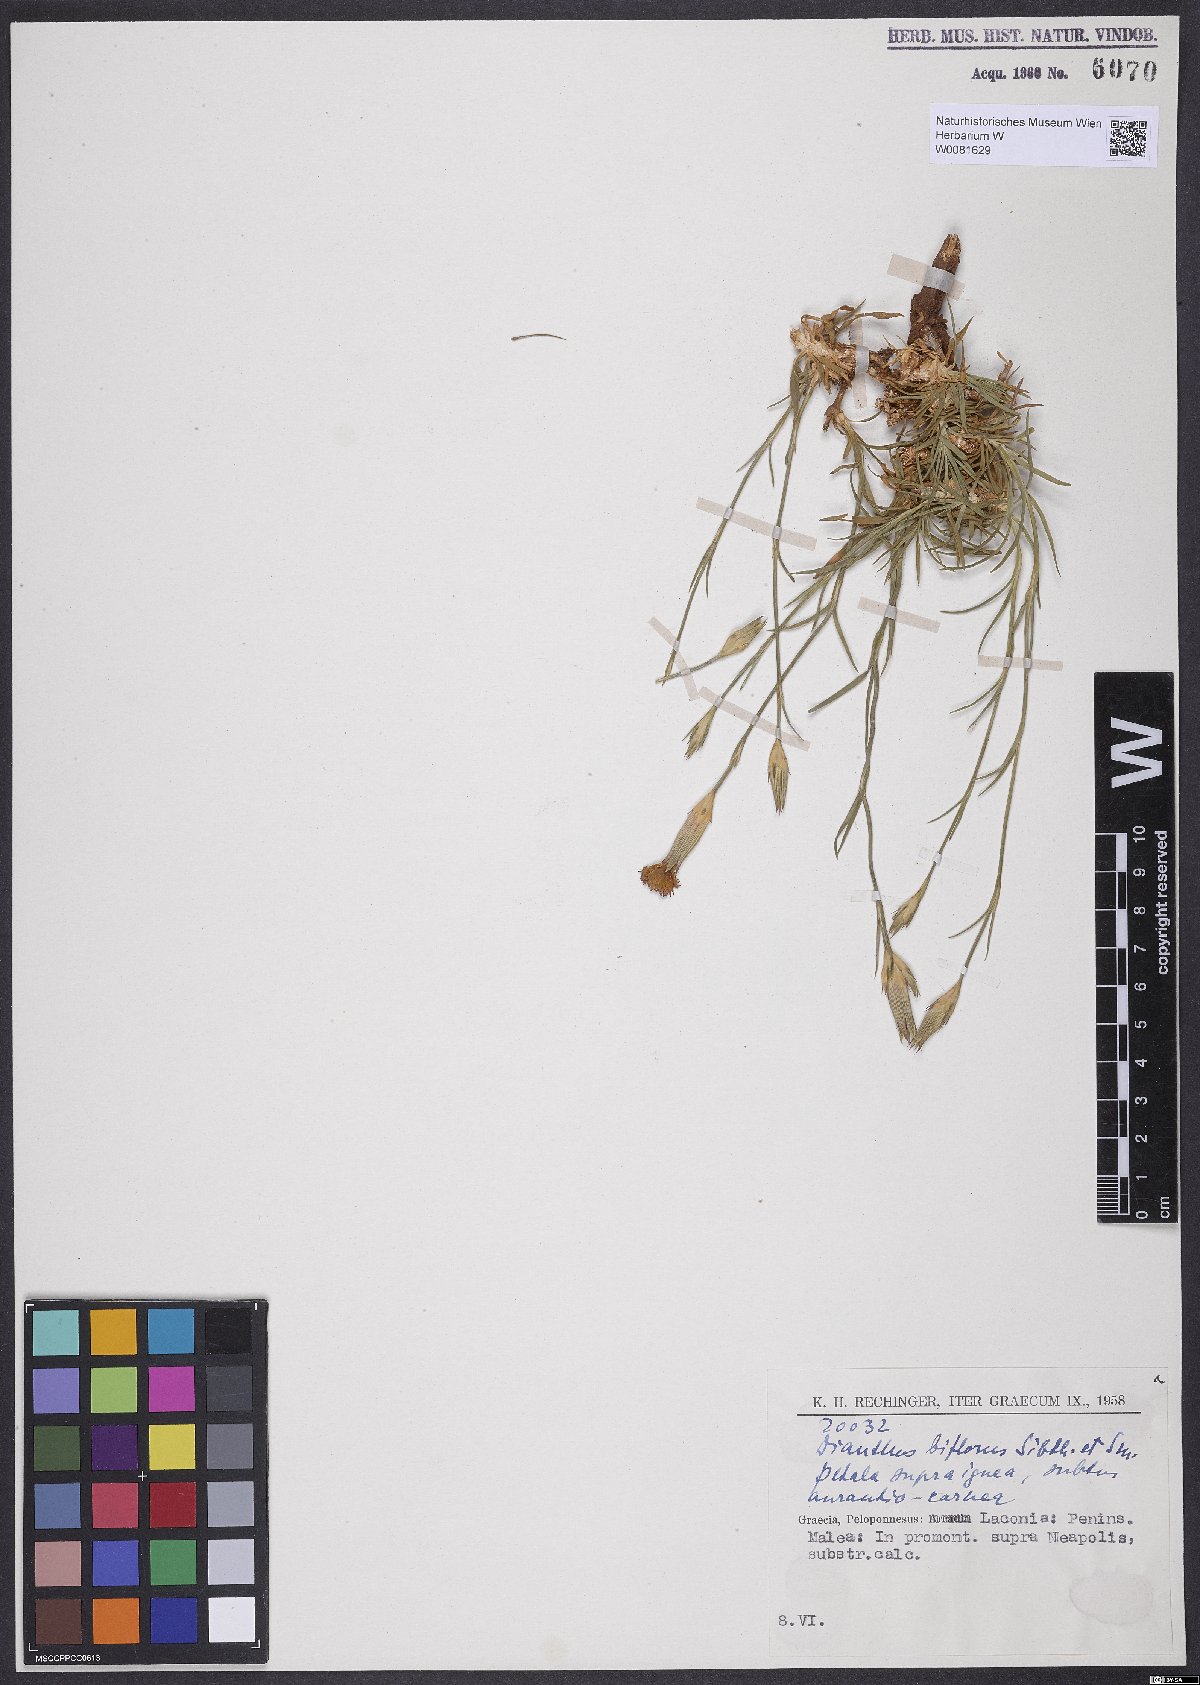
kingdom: Plantae
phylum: Tracheophyta
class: Magnoliopsida
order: Caryophyllales
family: Caryophyllaceae
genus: Dianthus
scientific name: Dianthus biflorus
